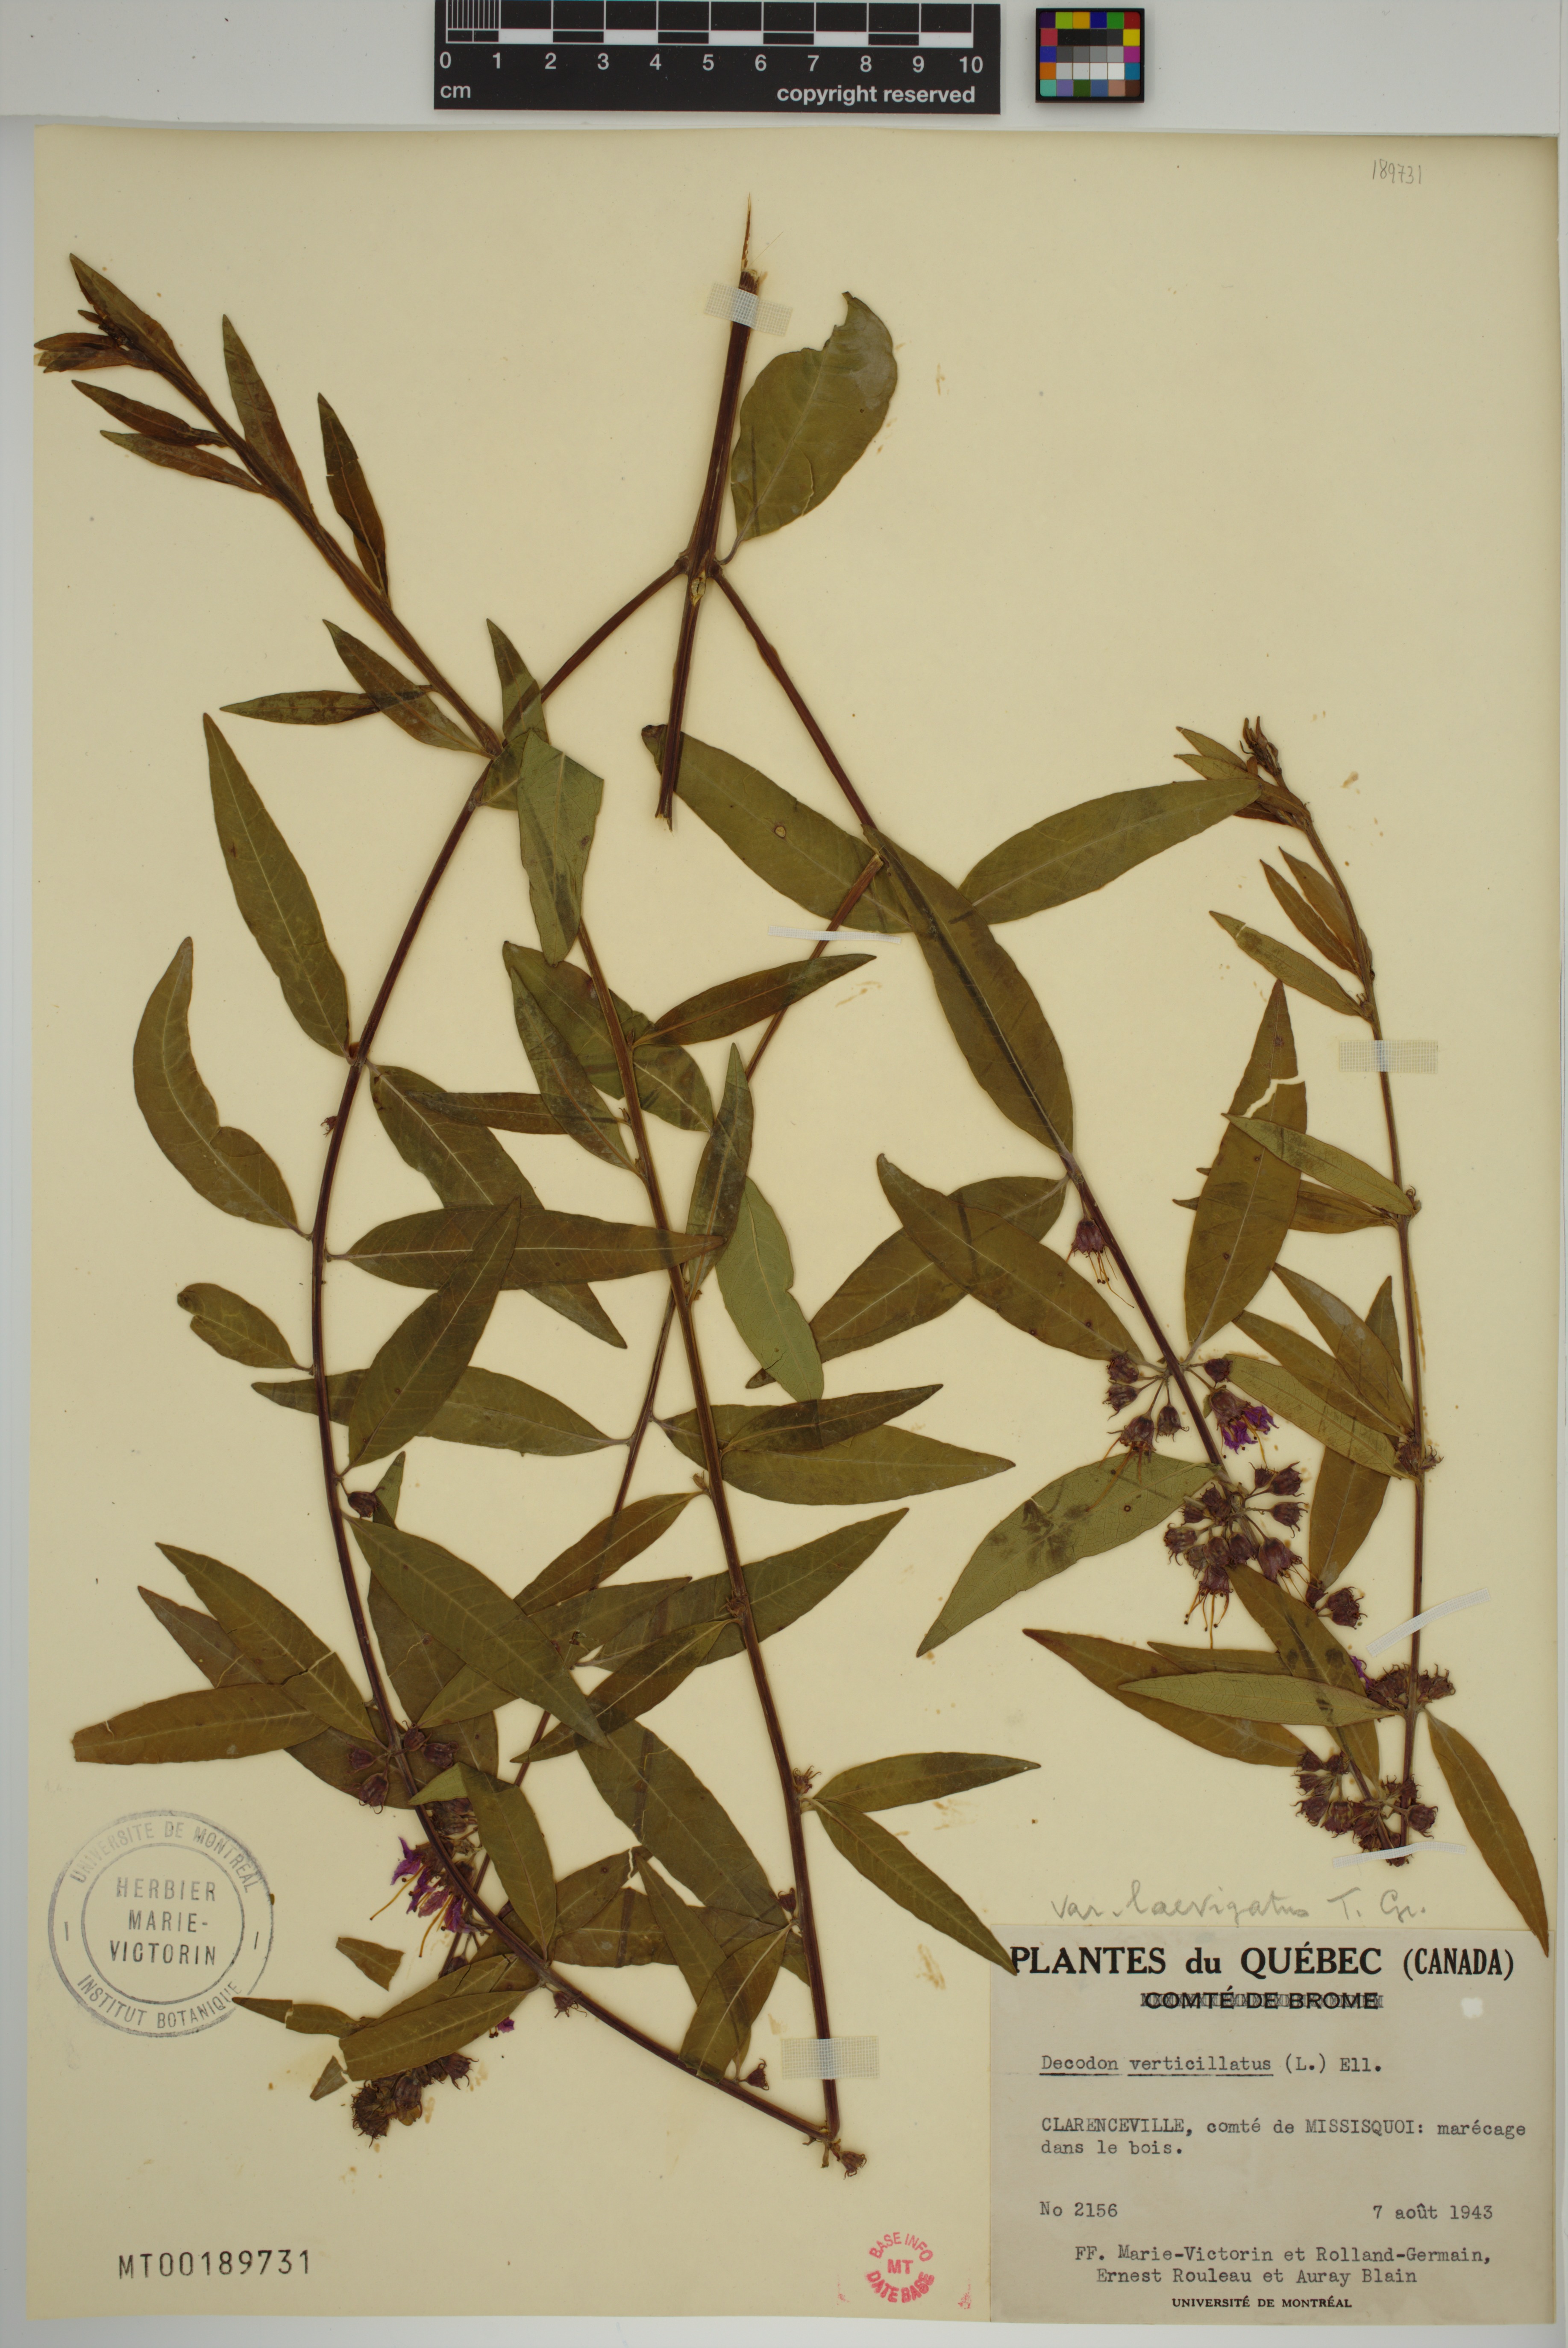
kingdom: Plantae
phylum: Tracheophyta
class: Magnoliopsida
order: Myrtales
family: Lythraceae
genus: Decodon
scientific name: Decodon verticillatus
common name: Hairy swamp loosestrife
